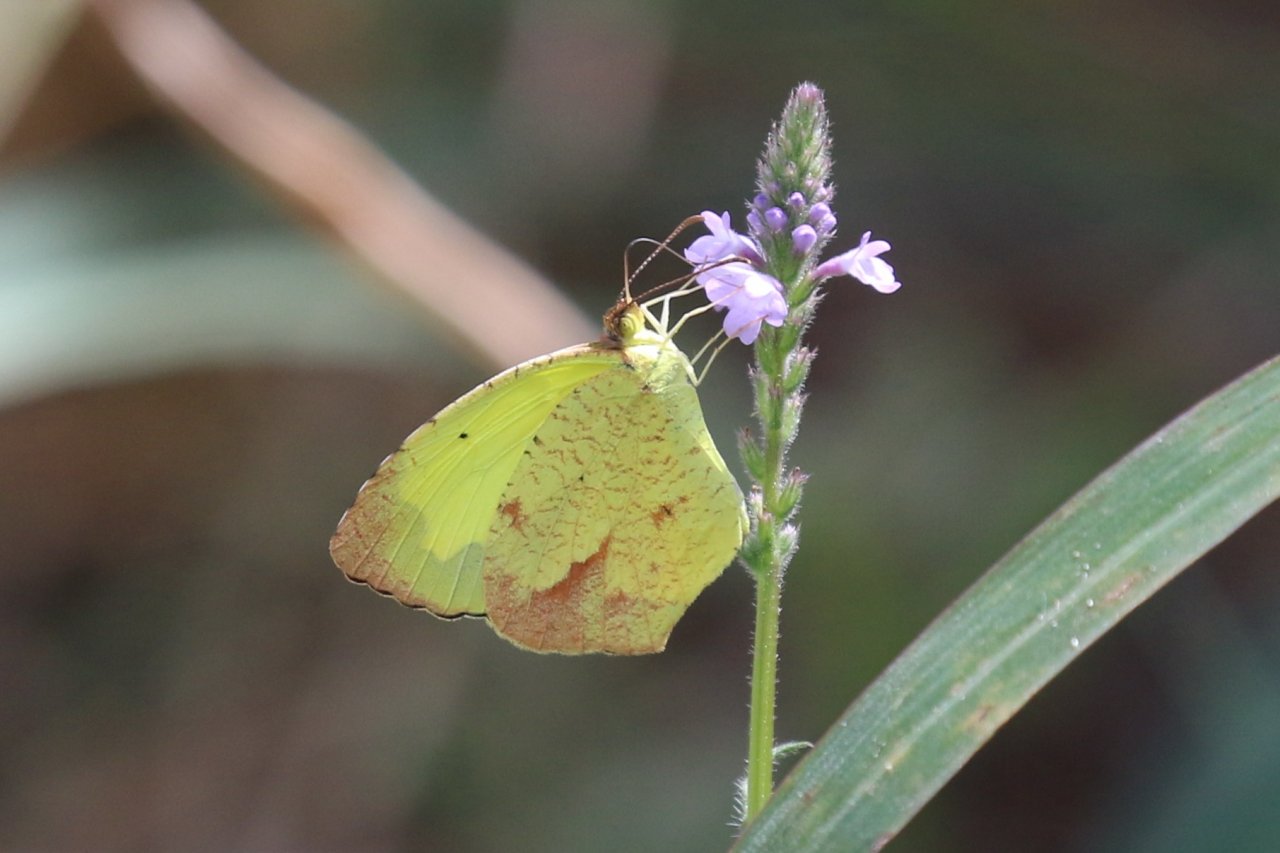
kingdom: Animalia
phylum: Arthropoda
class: Insecta
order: Lepidoptera
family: Pieridae
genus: Eurema
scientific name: Eurema boisduvaliana
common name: Boisduval's Yellow
